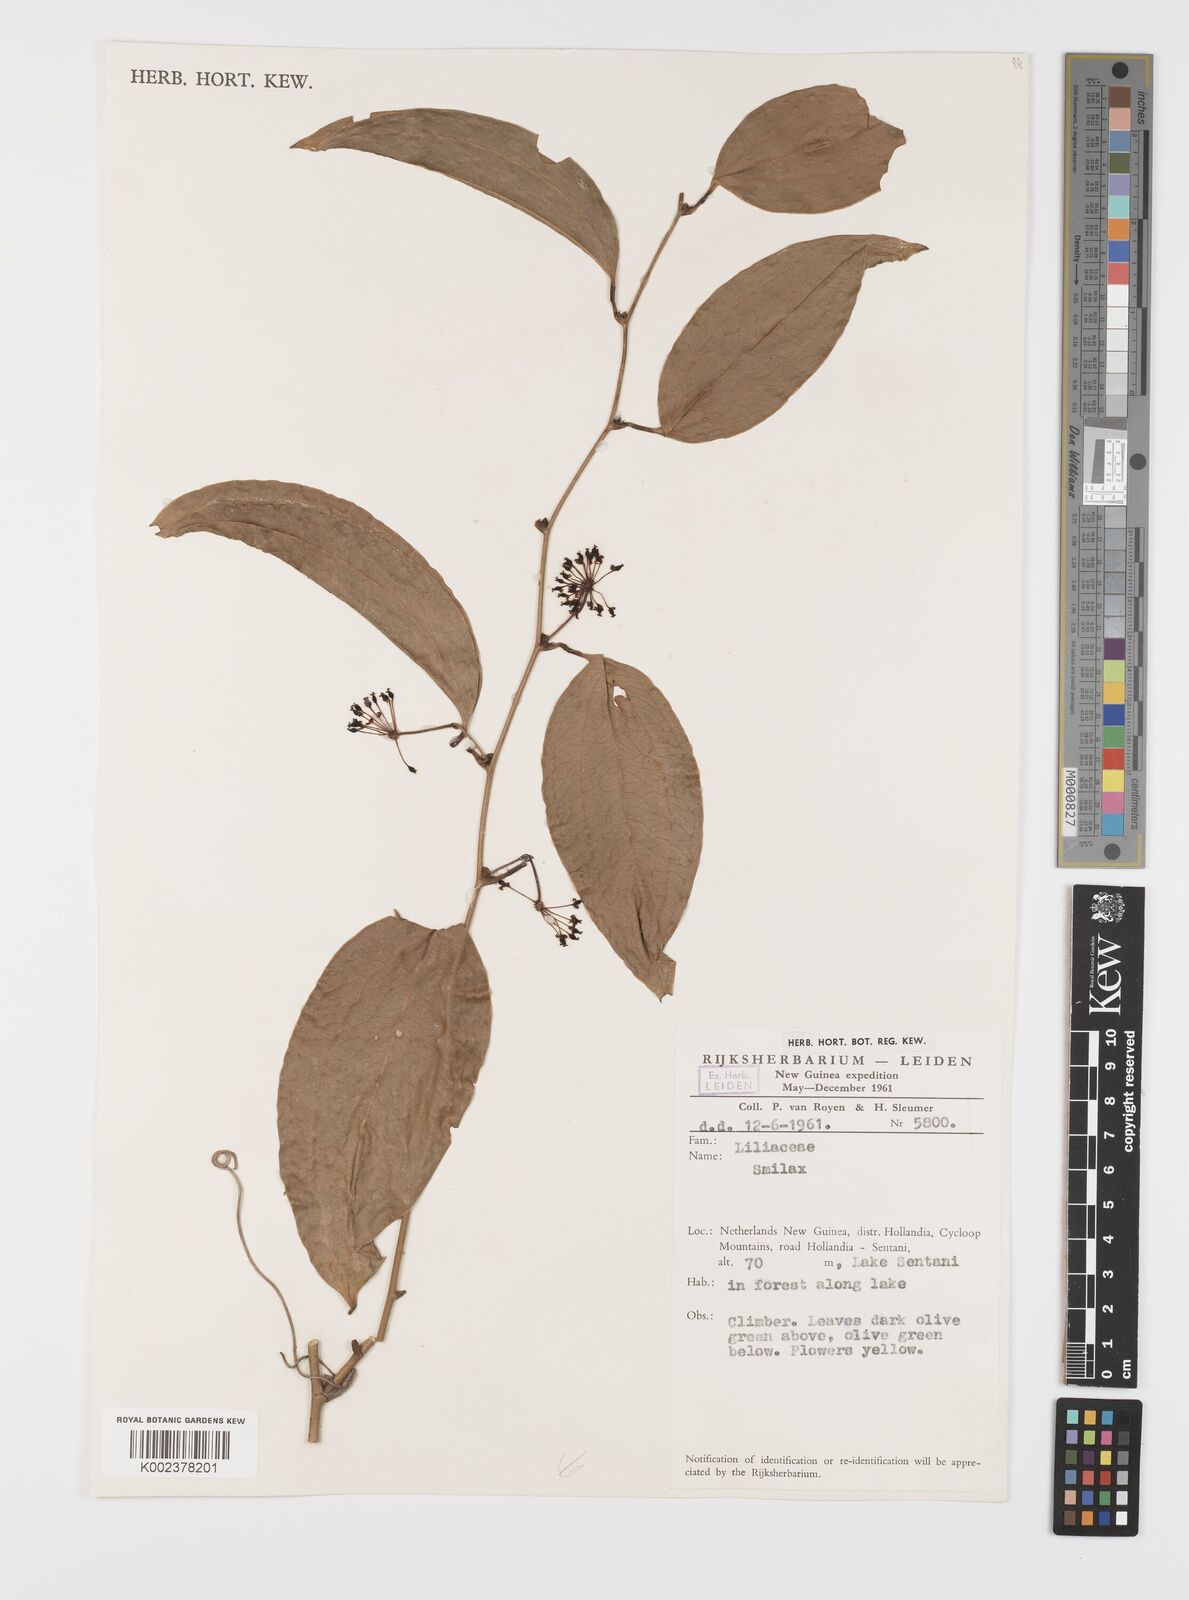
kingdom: Plantae
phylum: Tracheophyta
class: Liliopsida
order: Liliales
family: Smilacaceae
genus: Smilax
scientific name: Smilax
